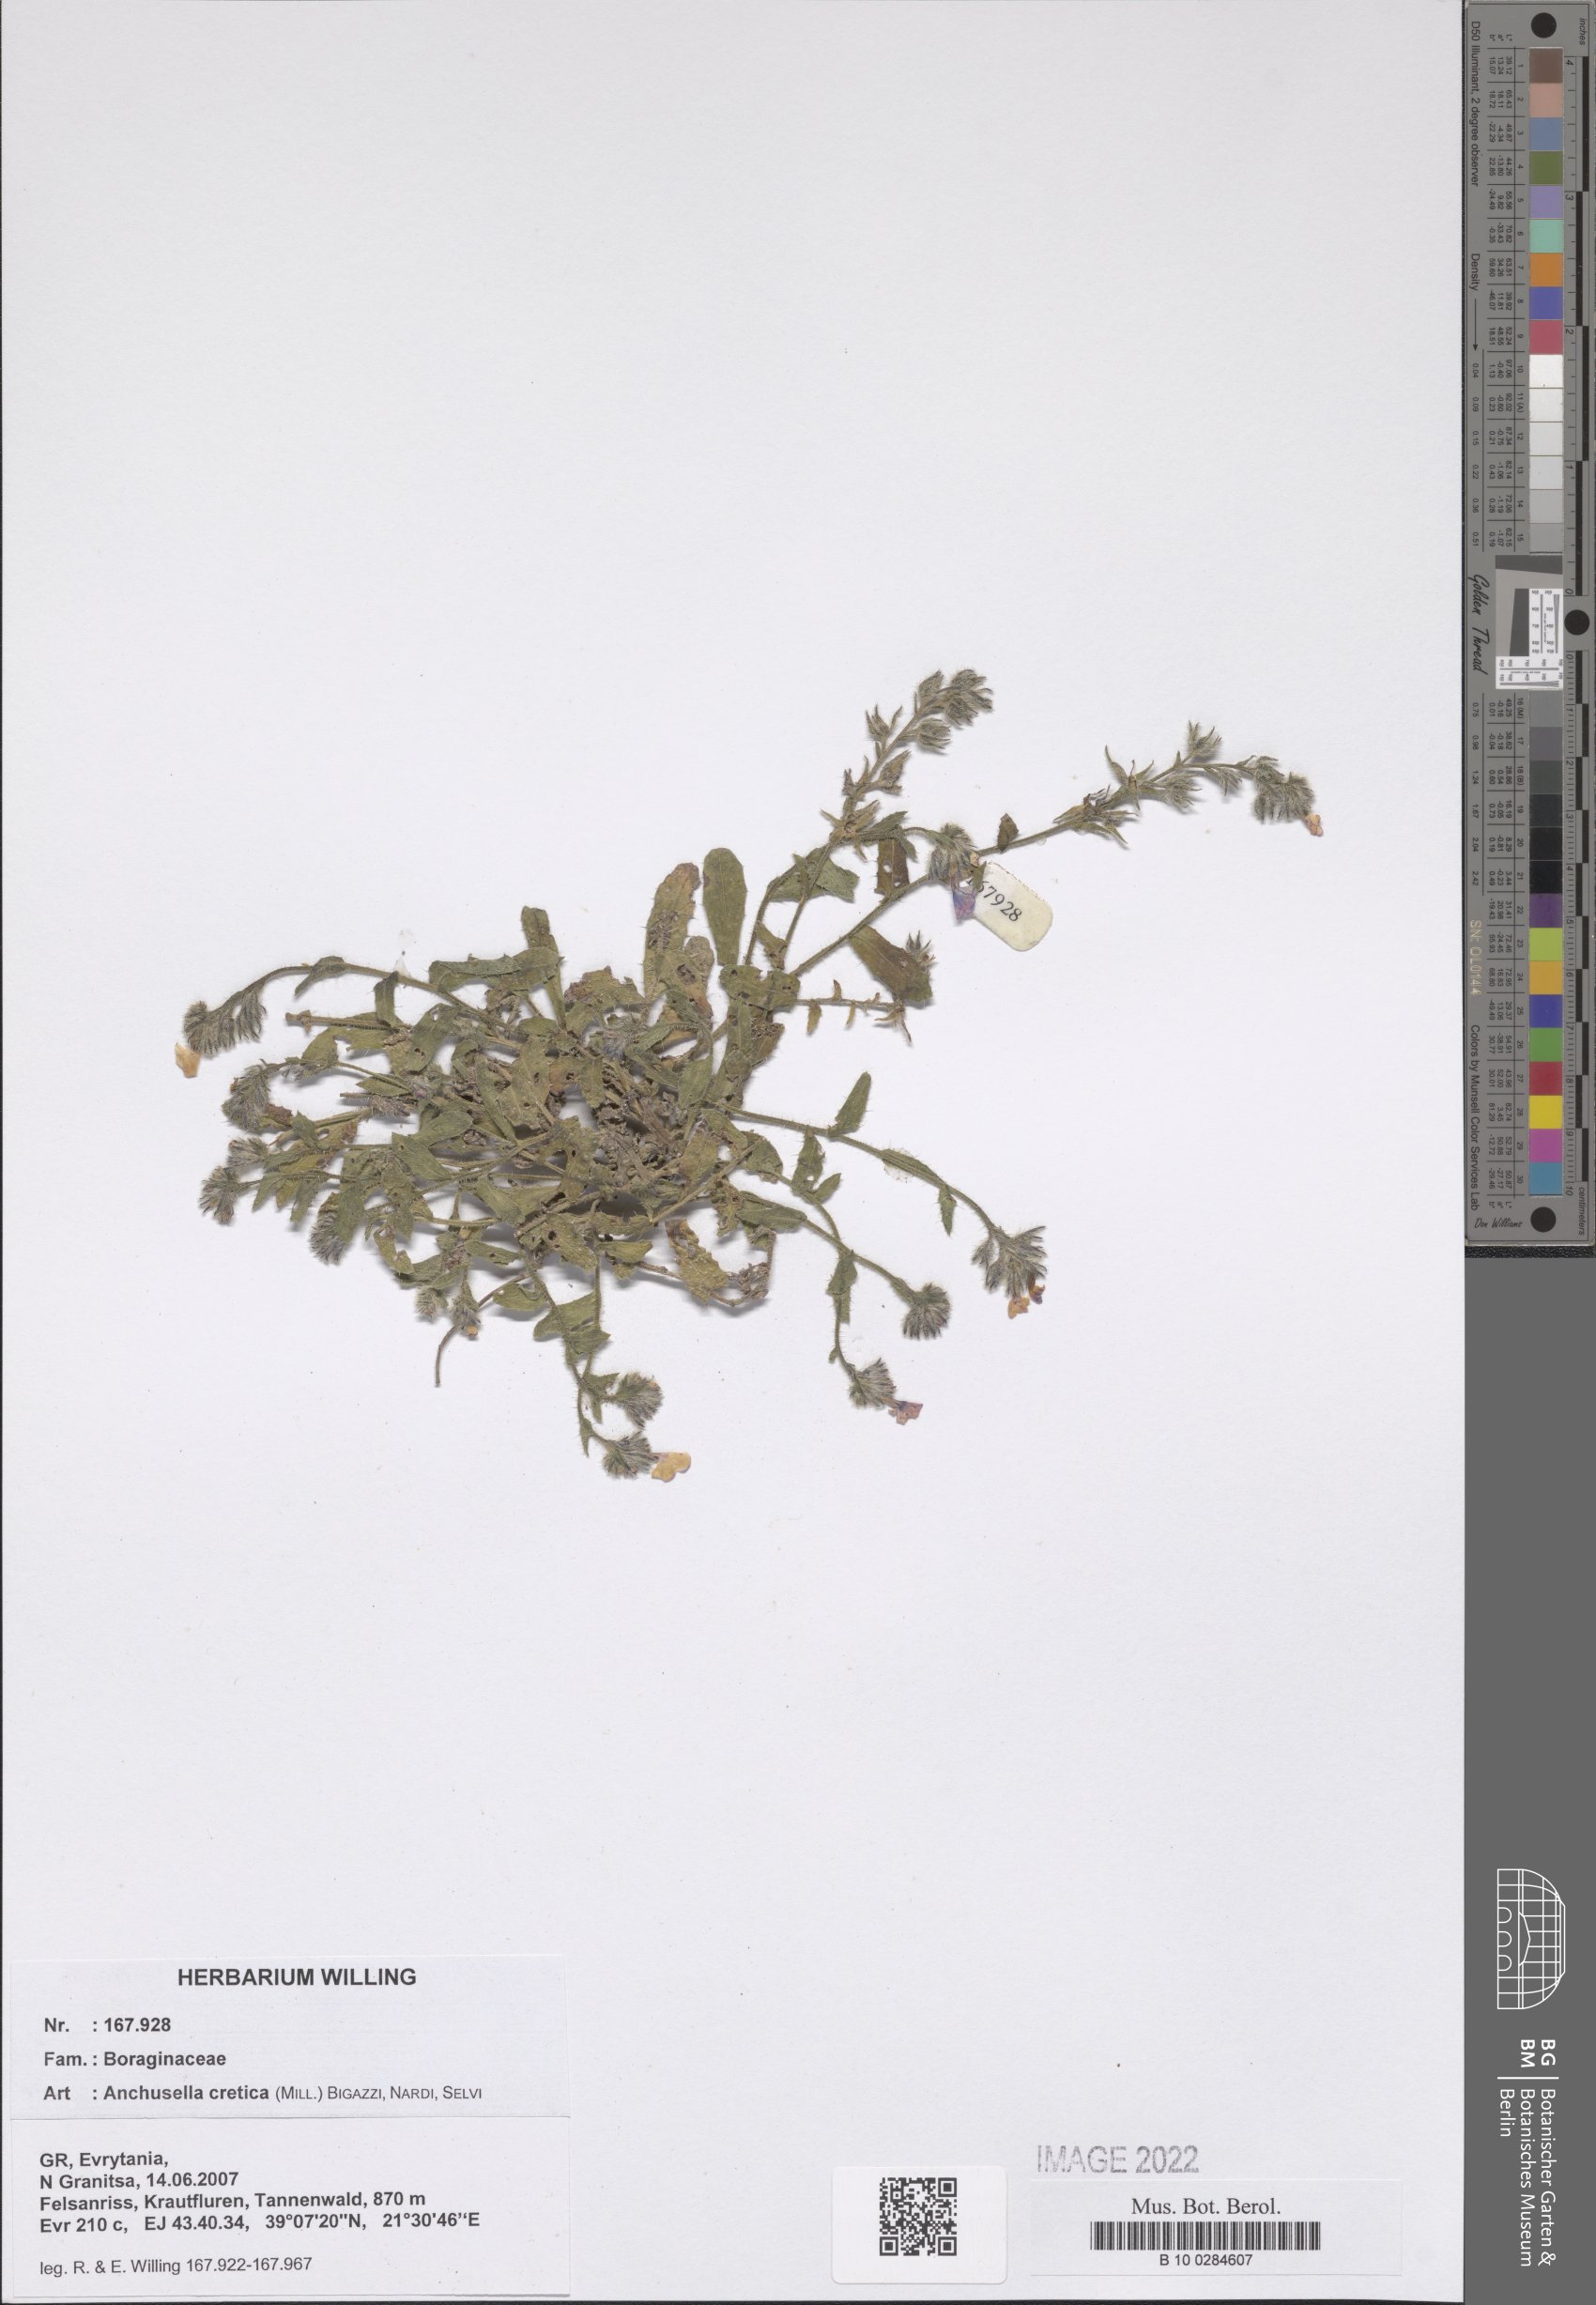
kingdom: Plantae
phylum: Tracheophyta
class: Magnoliopsida
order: Boraginales
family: Boraginaceae
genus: Lycopsis
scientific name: Lycopsis arvensis
